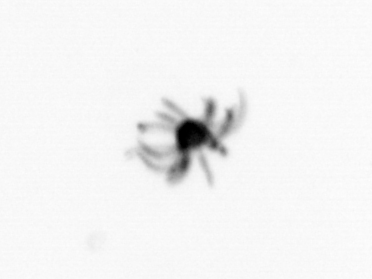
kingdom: Animalia
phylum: Cnidaria
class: Hydrozoa
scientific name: Hydrozoa
